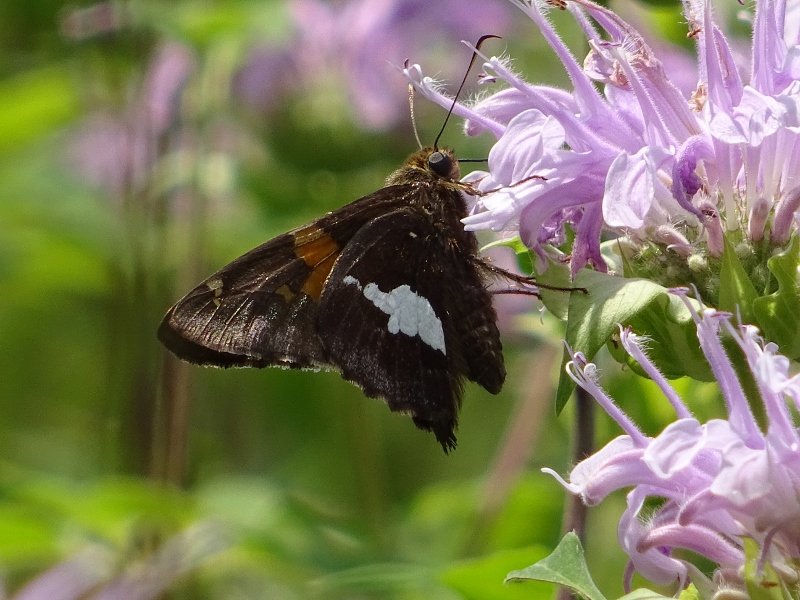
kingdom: Animalia
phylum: Arthropoda
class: Insecta
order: Lepidoptera
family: Hesperiidae
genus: Epargyreus
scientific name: Epargyreus clarus
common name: Silver-spotted Skipper
